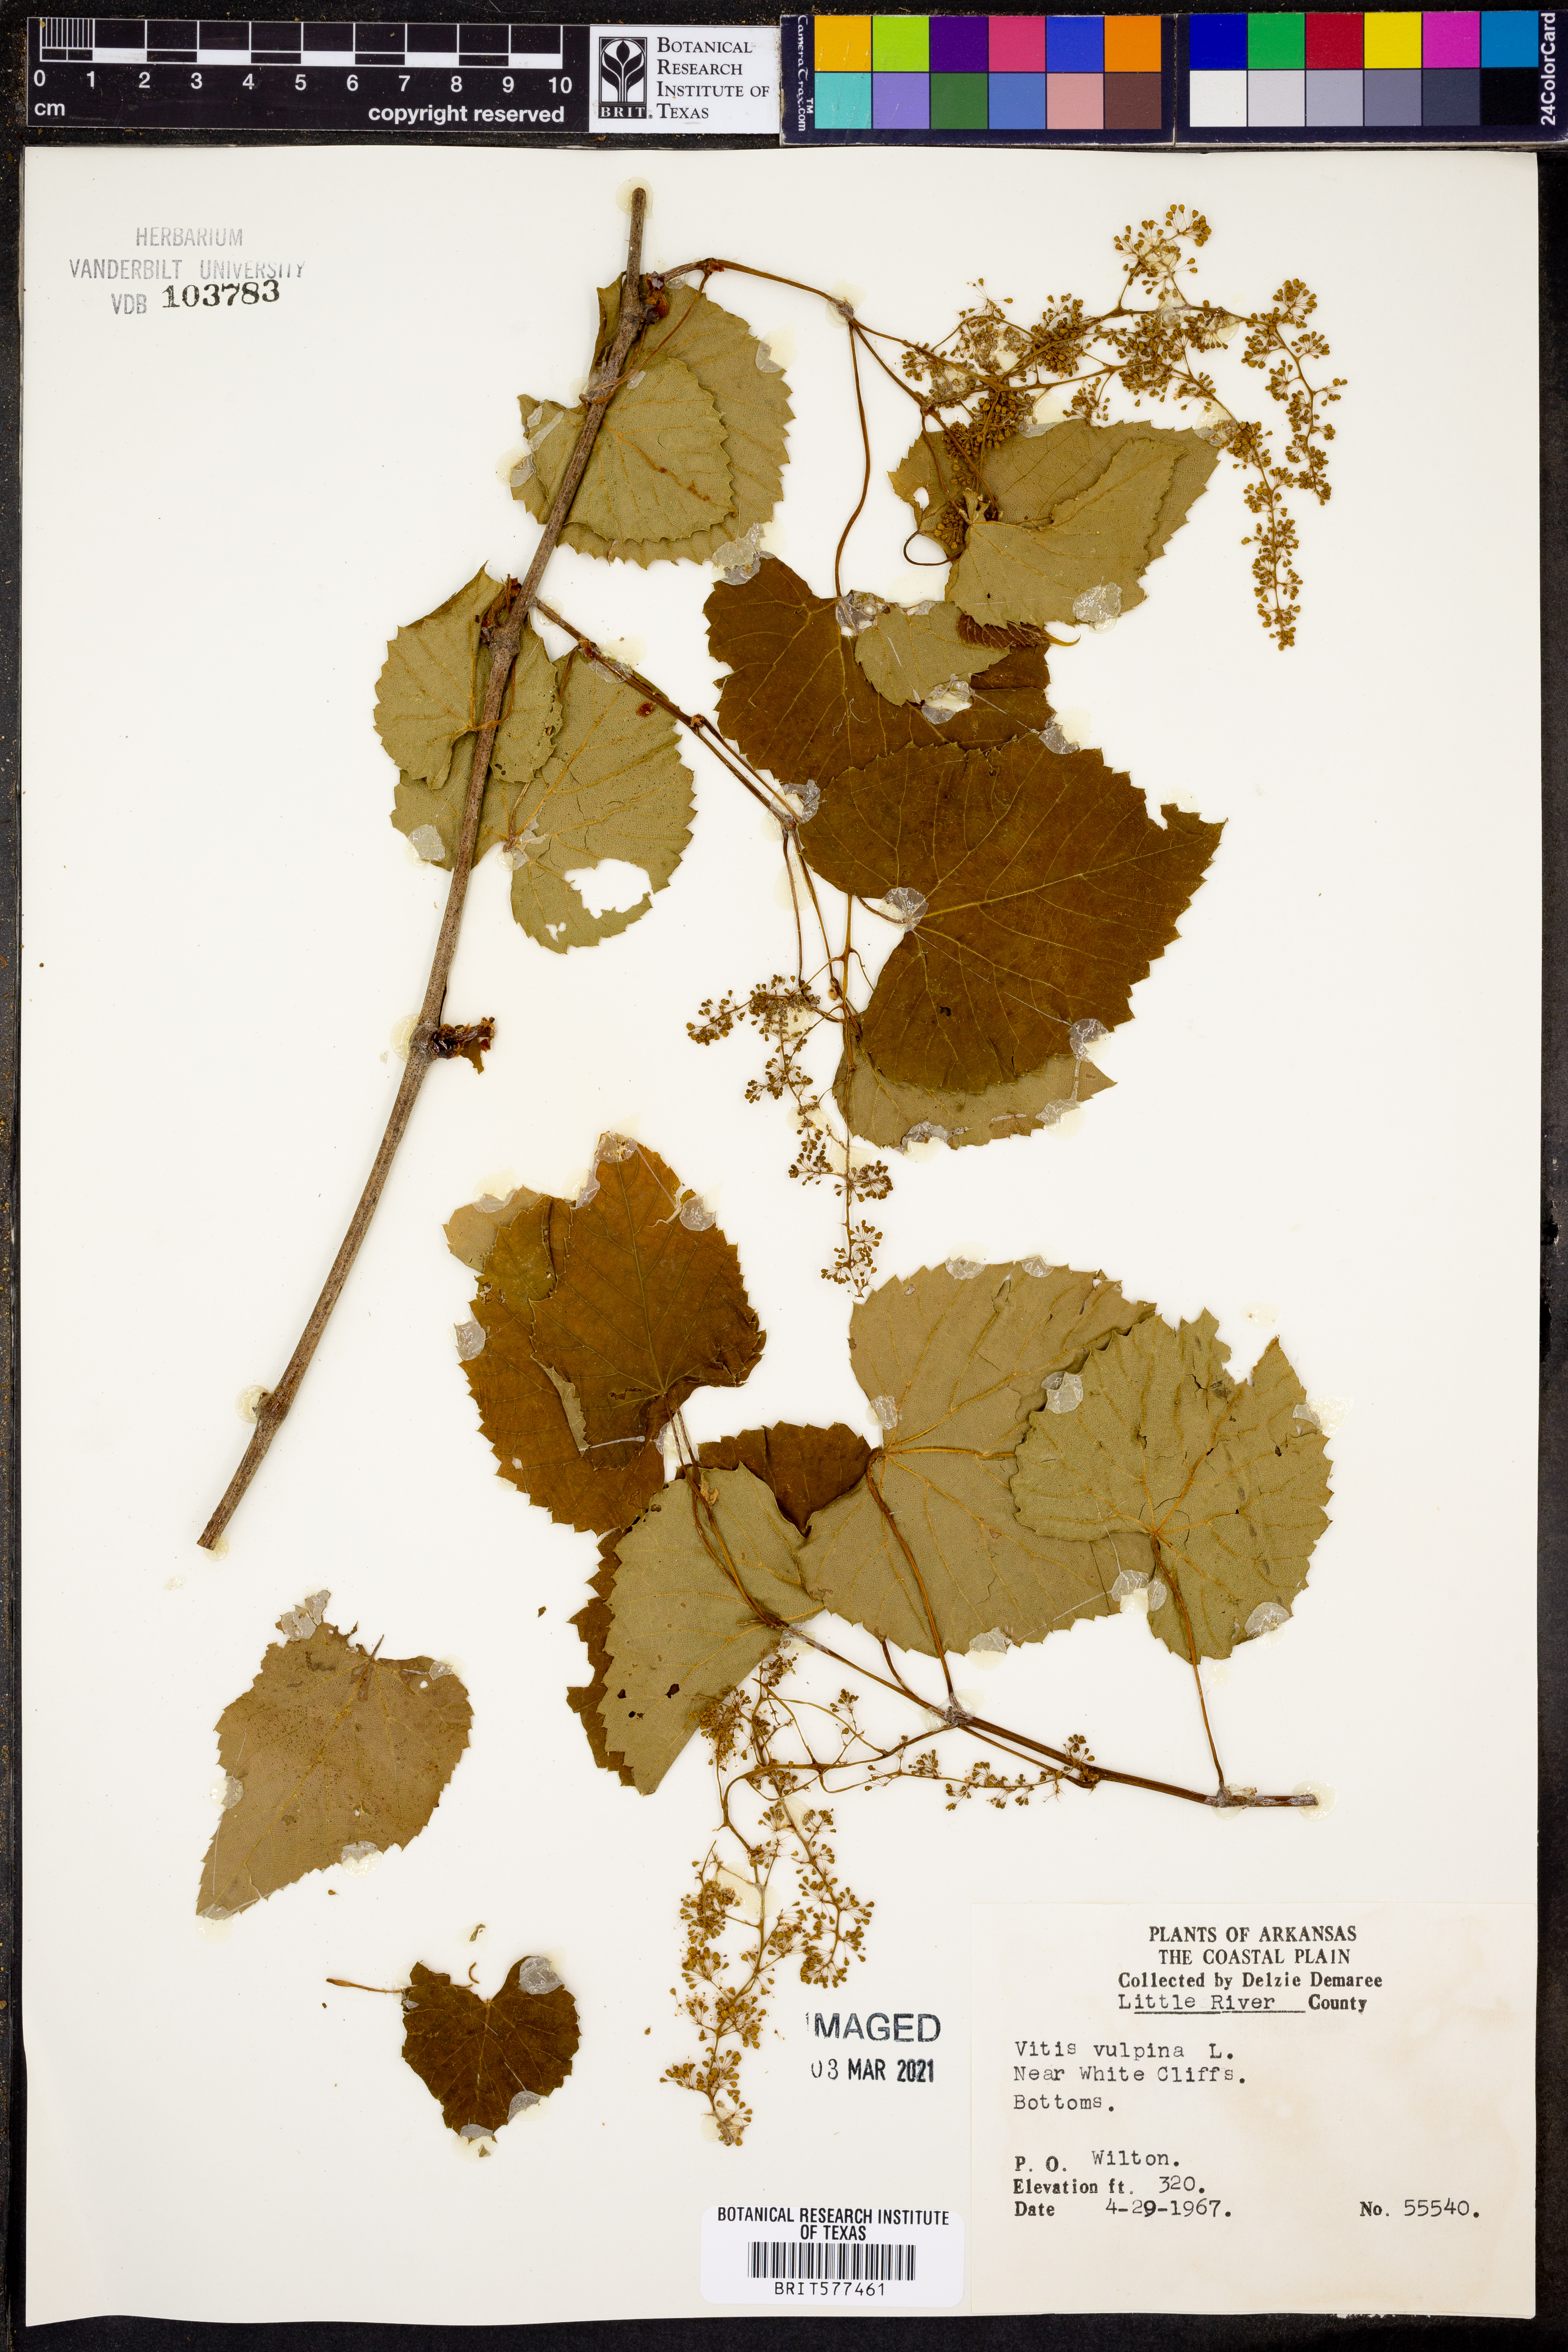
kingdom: Plantae
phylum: Tracheophyta
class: Magnoliopsida
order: Vitales
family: Vitaceae
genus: Vitis
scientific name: Vitis vulpina
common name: Frost grape
